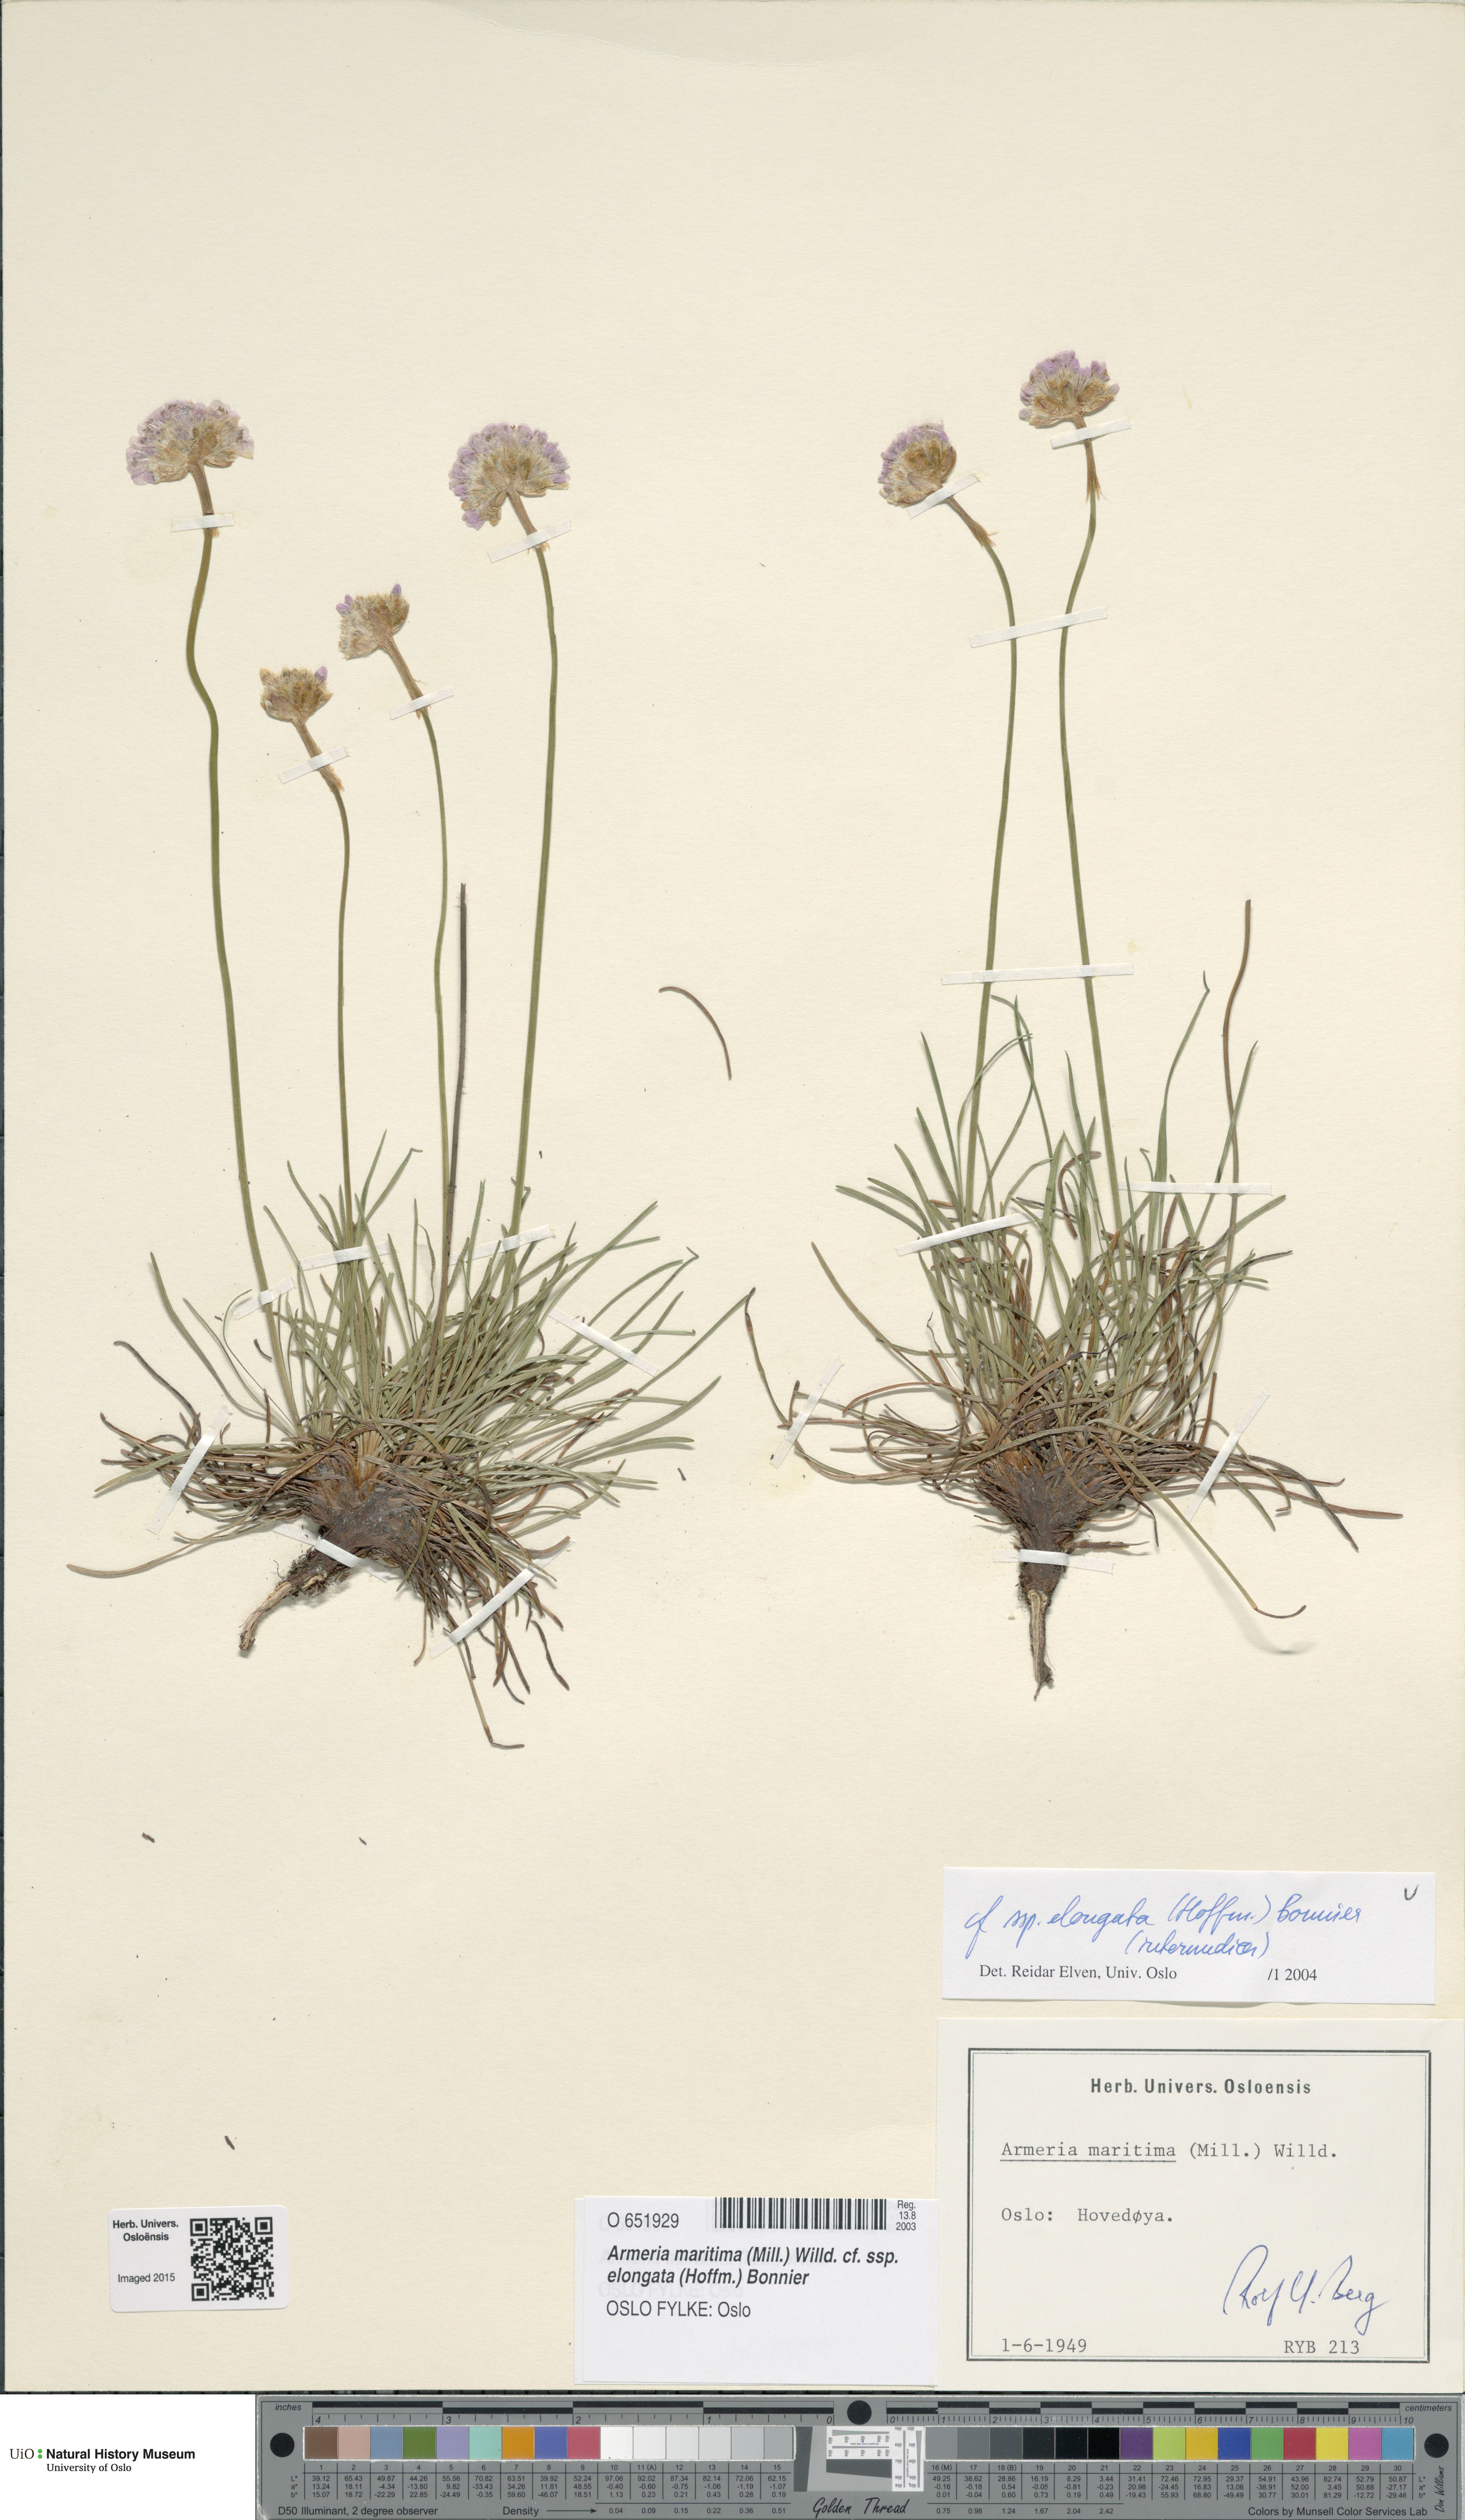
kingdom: Plantae
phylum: Tracheophyta
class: Magnoliopsida
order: Caryophyllales
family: Plumbaginaceae
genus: Armeria
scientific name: Armeria maritima
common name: Thrift
